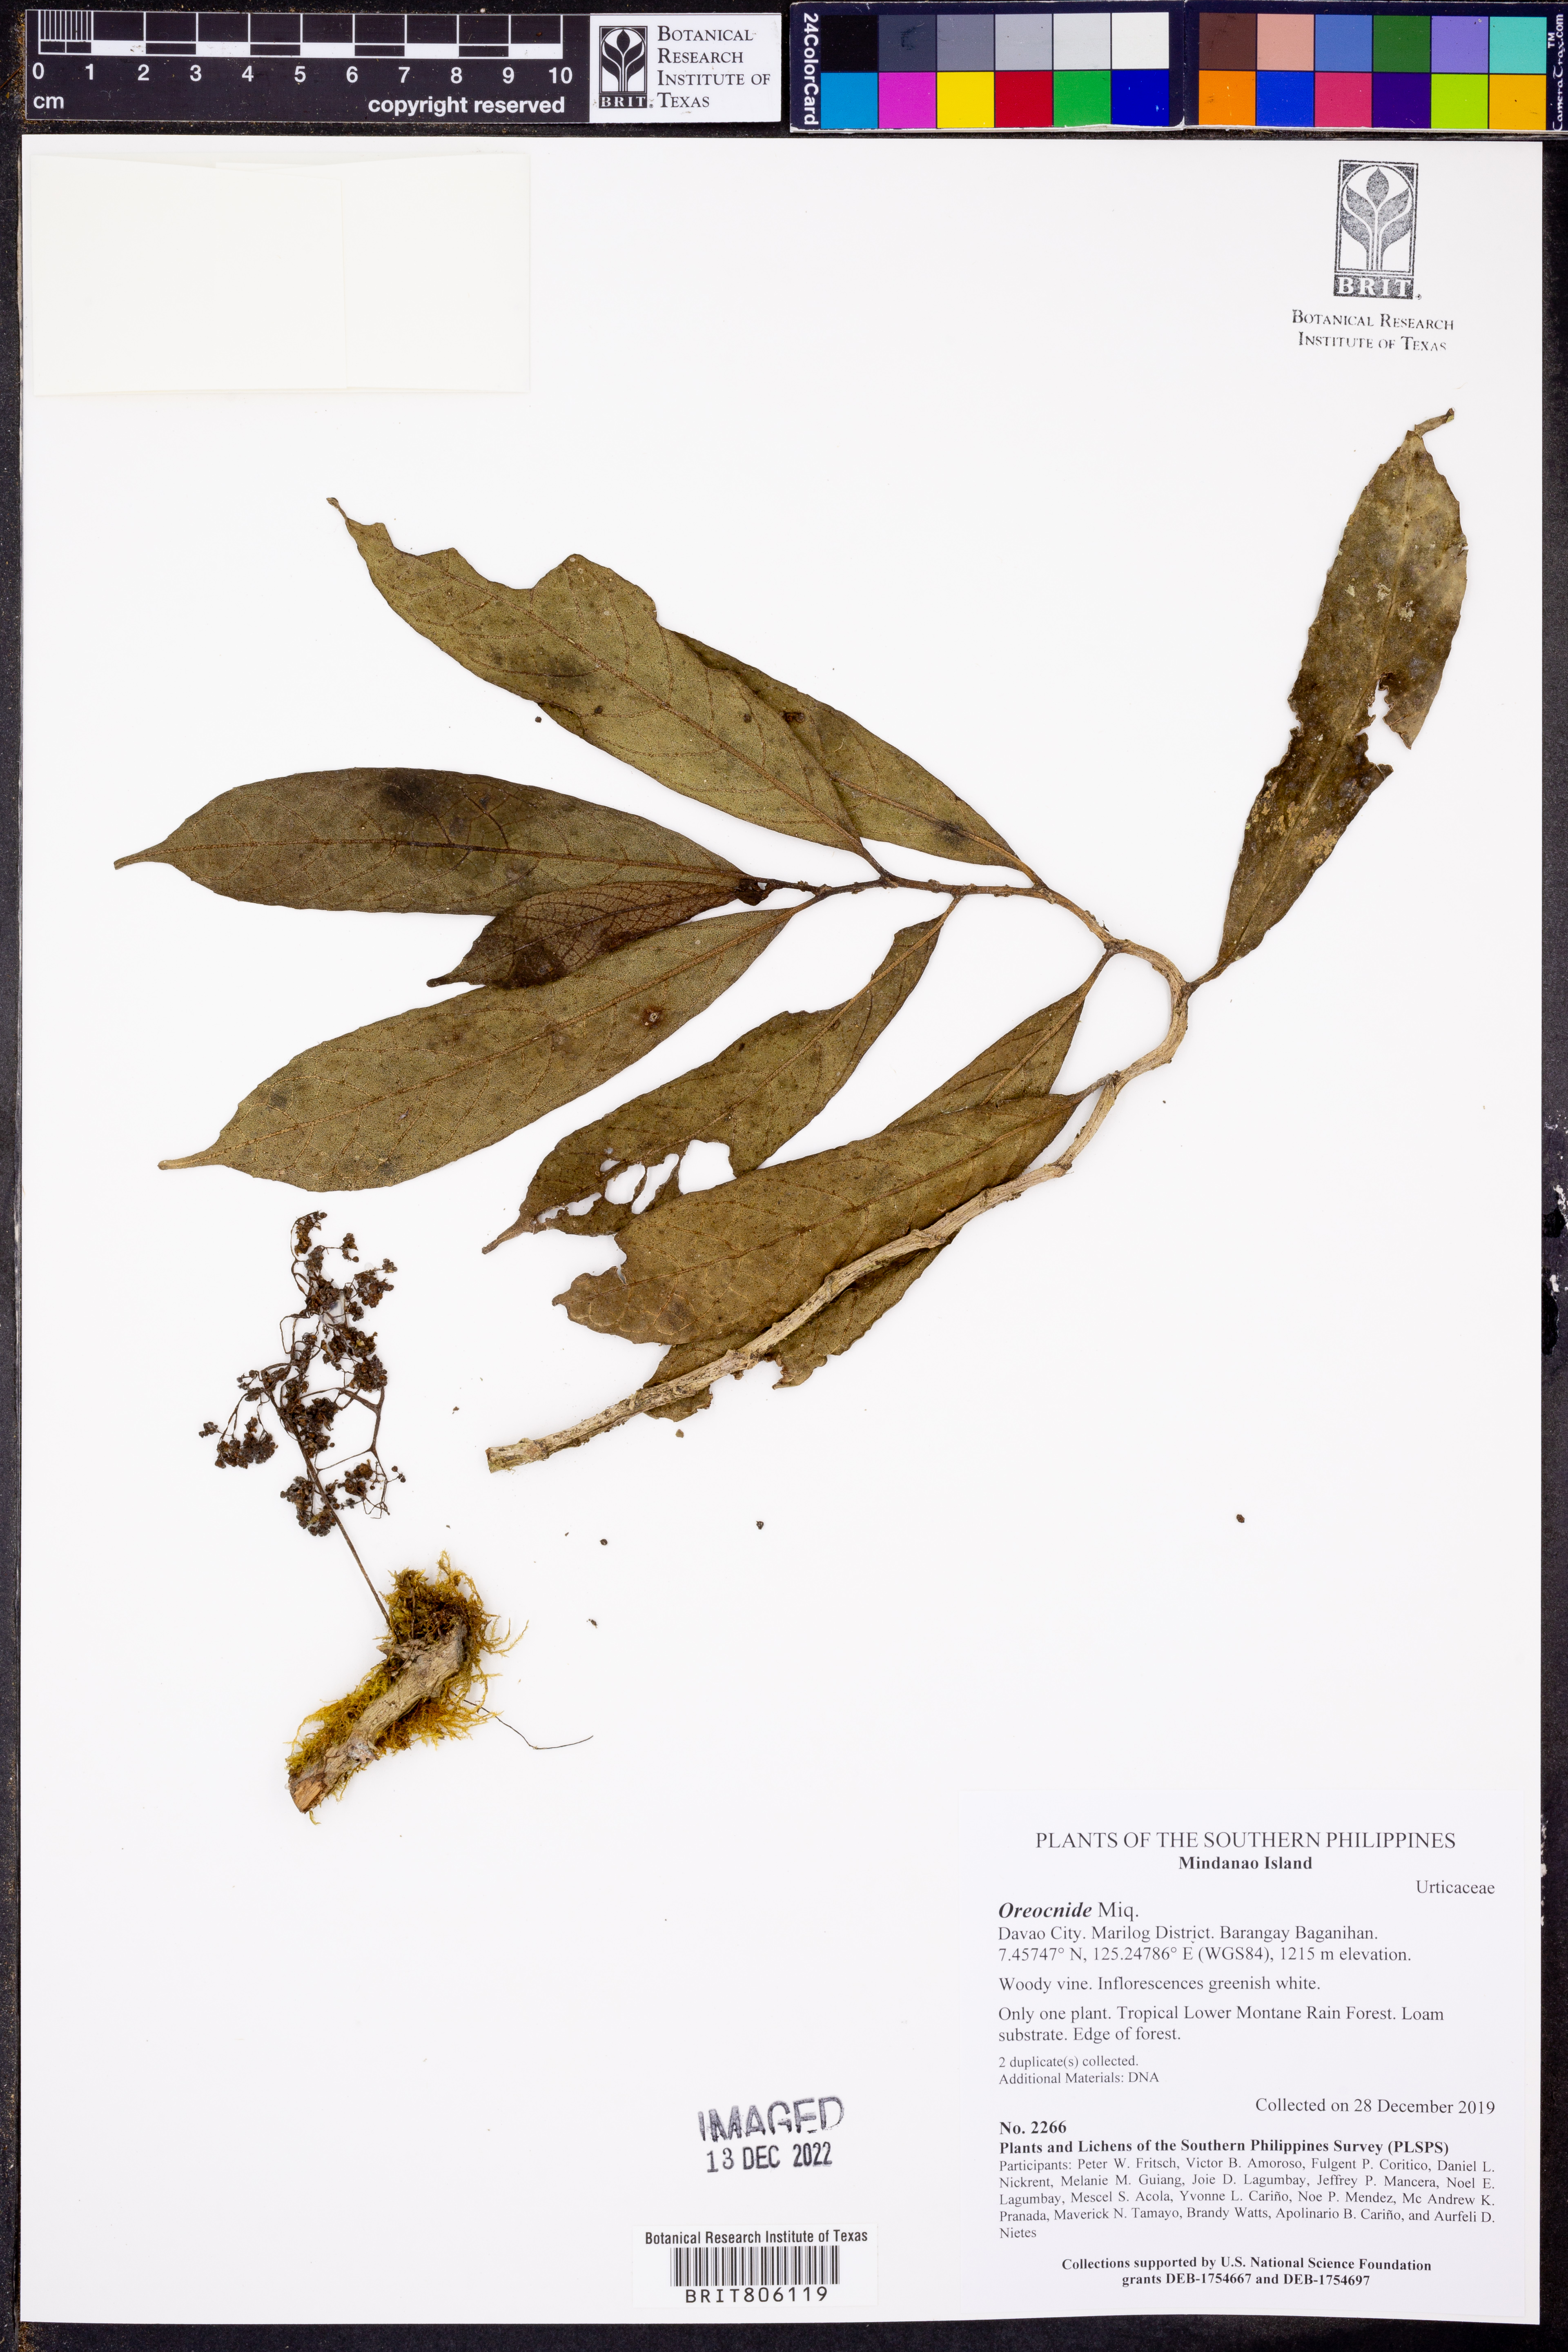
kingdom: Plantae
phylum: Tracheophyta
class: Magnoliopsida
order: Rosales
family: Urticaceae
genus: Oreocnide
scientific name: Oreocnide
